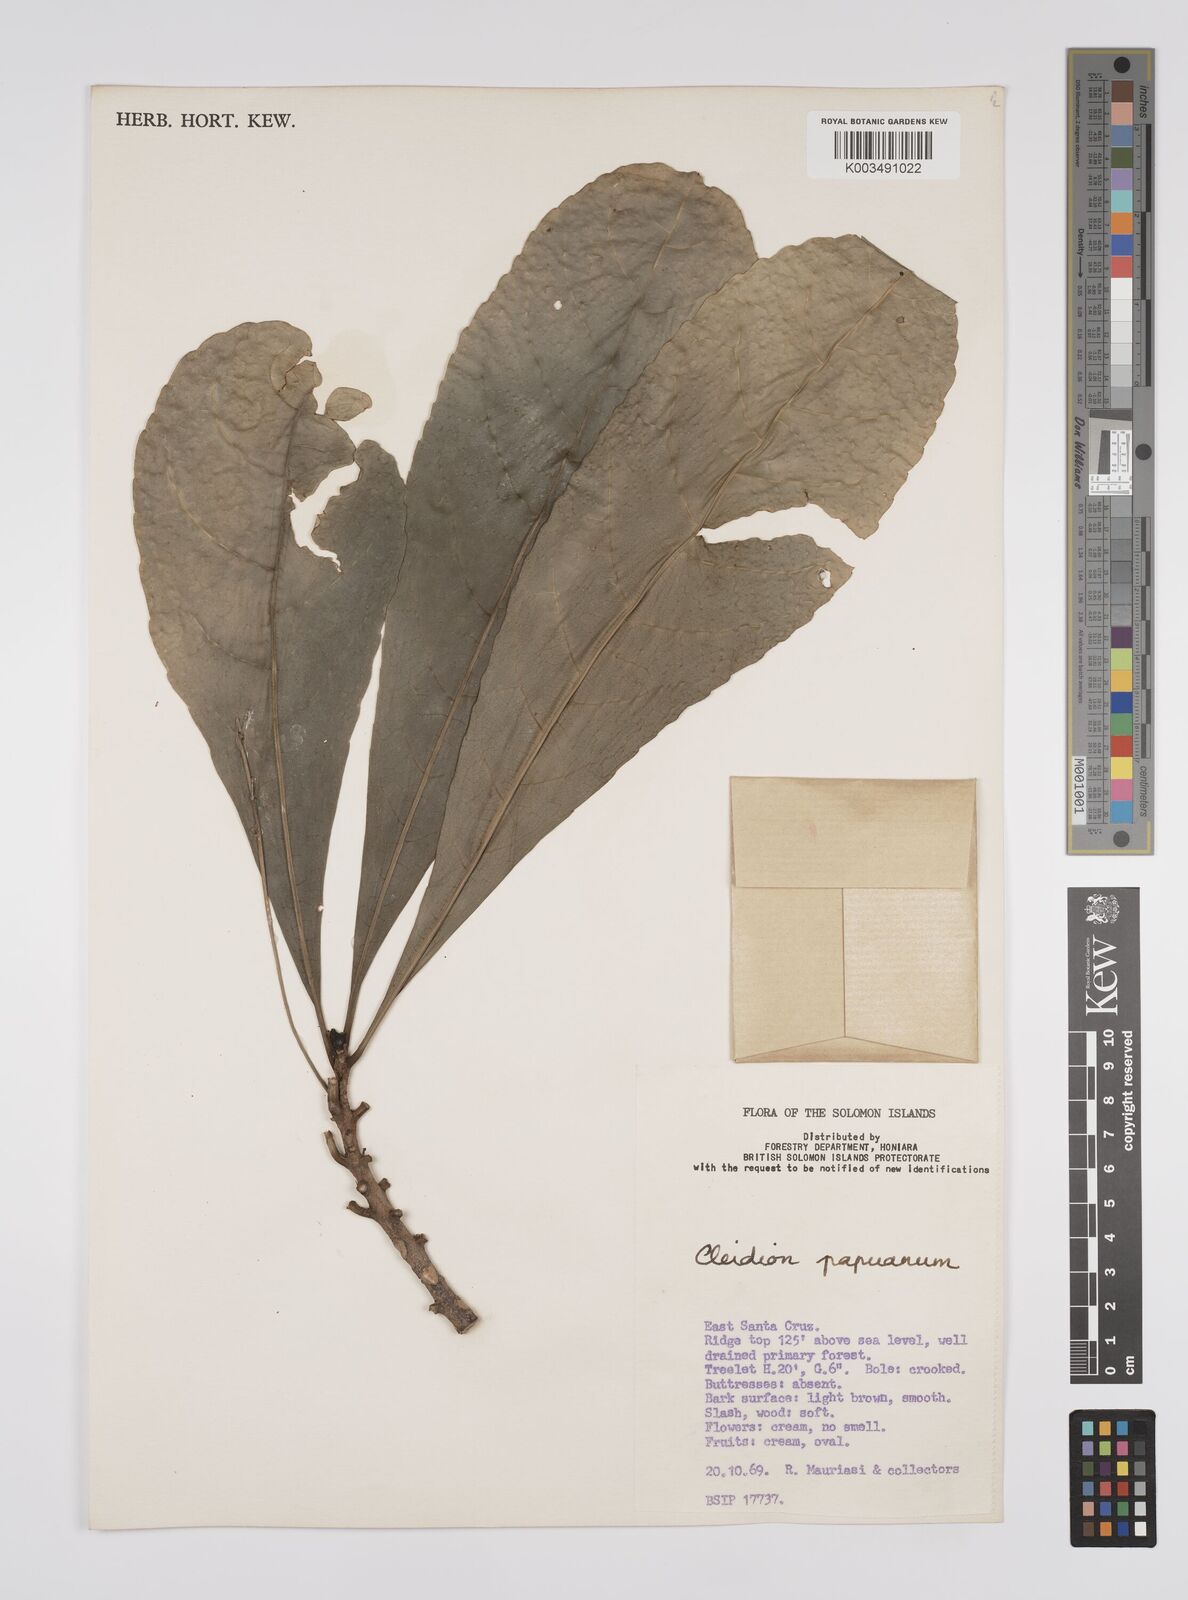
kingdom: Plantae
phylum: Tracheophyta
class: Magnoliopsida
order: Malpighiales
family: Euphorbiaceae
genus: Cleidion
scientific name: Cleidion papuanum
